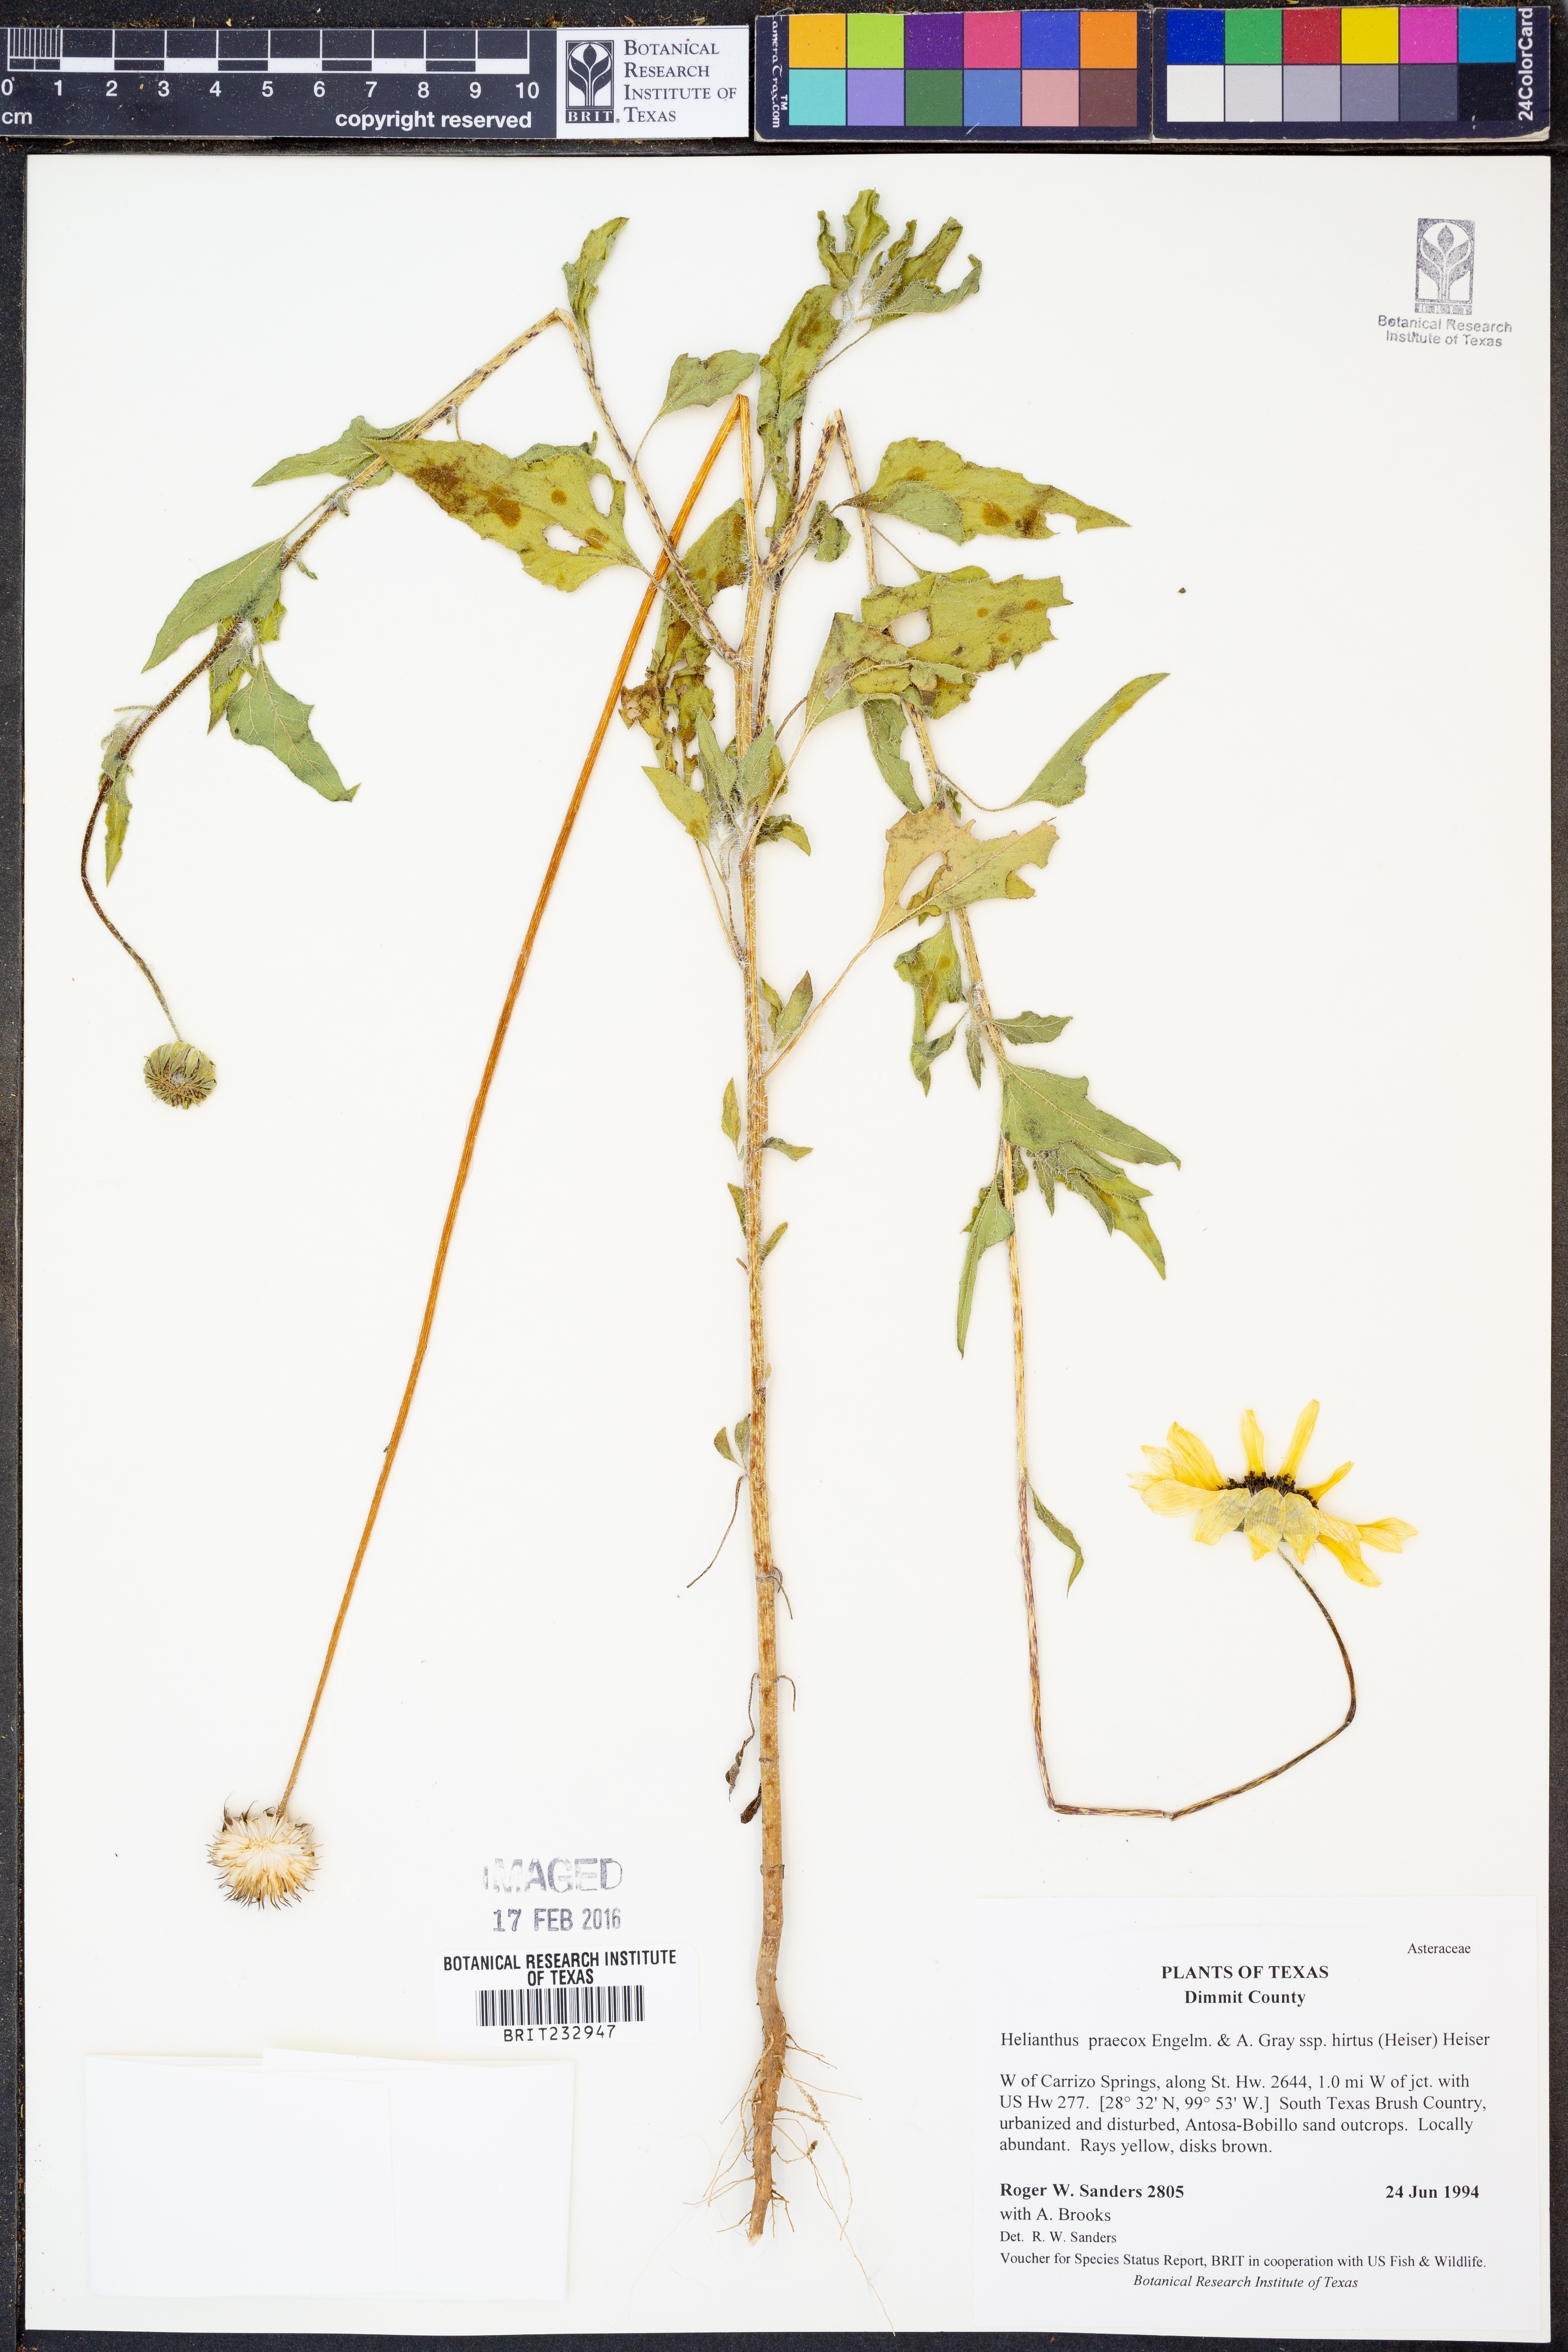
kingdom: Plantae
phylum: Tracheophyta
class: Magnoliopsida
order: Asterales
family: Asteraceae
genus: Helianthus
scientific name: Helianthus praecox
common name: Texas sunflower
